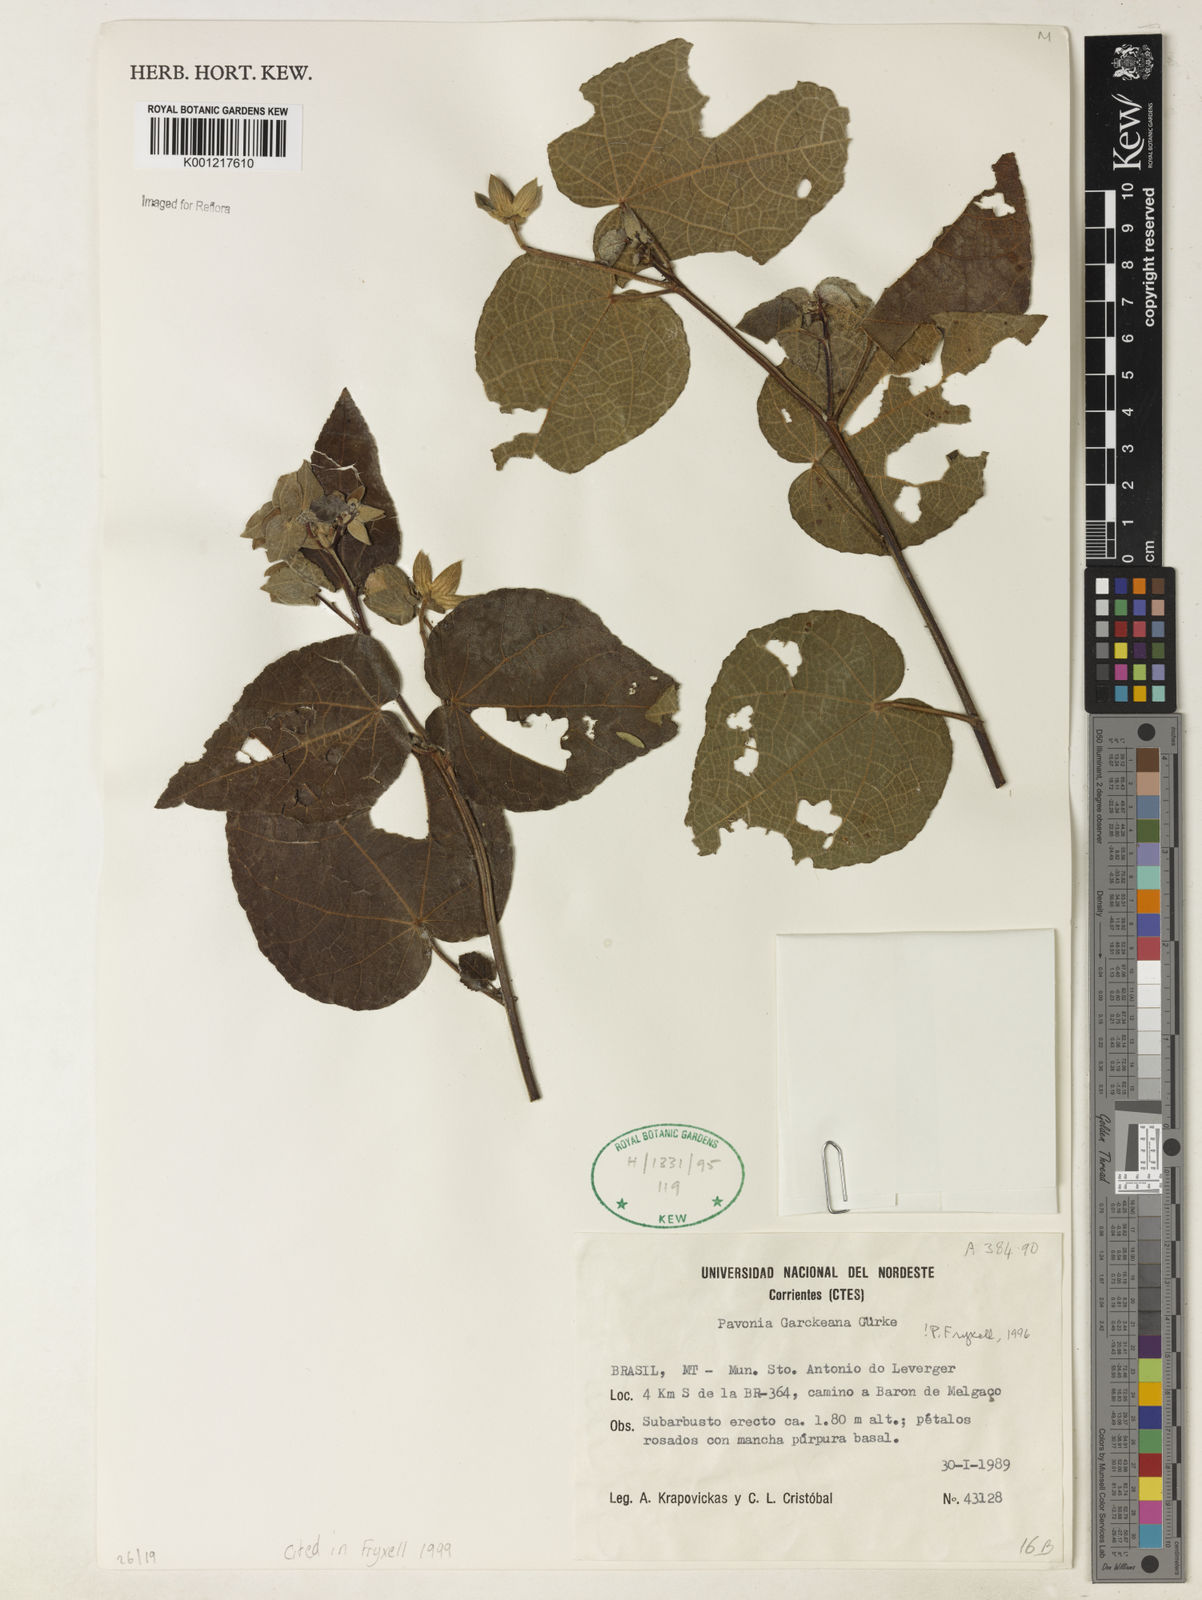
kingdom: Plantae
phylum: Tracheophyta
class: Magnoliopsida
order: Malvales
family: Malvaceae
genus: Pavonia
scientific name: Pavonia
